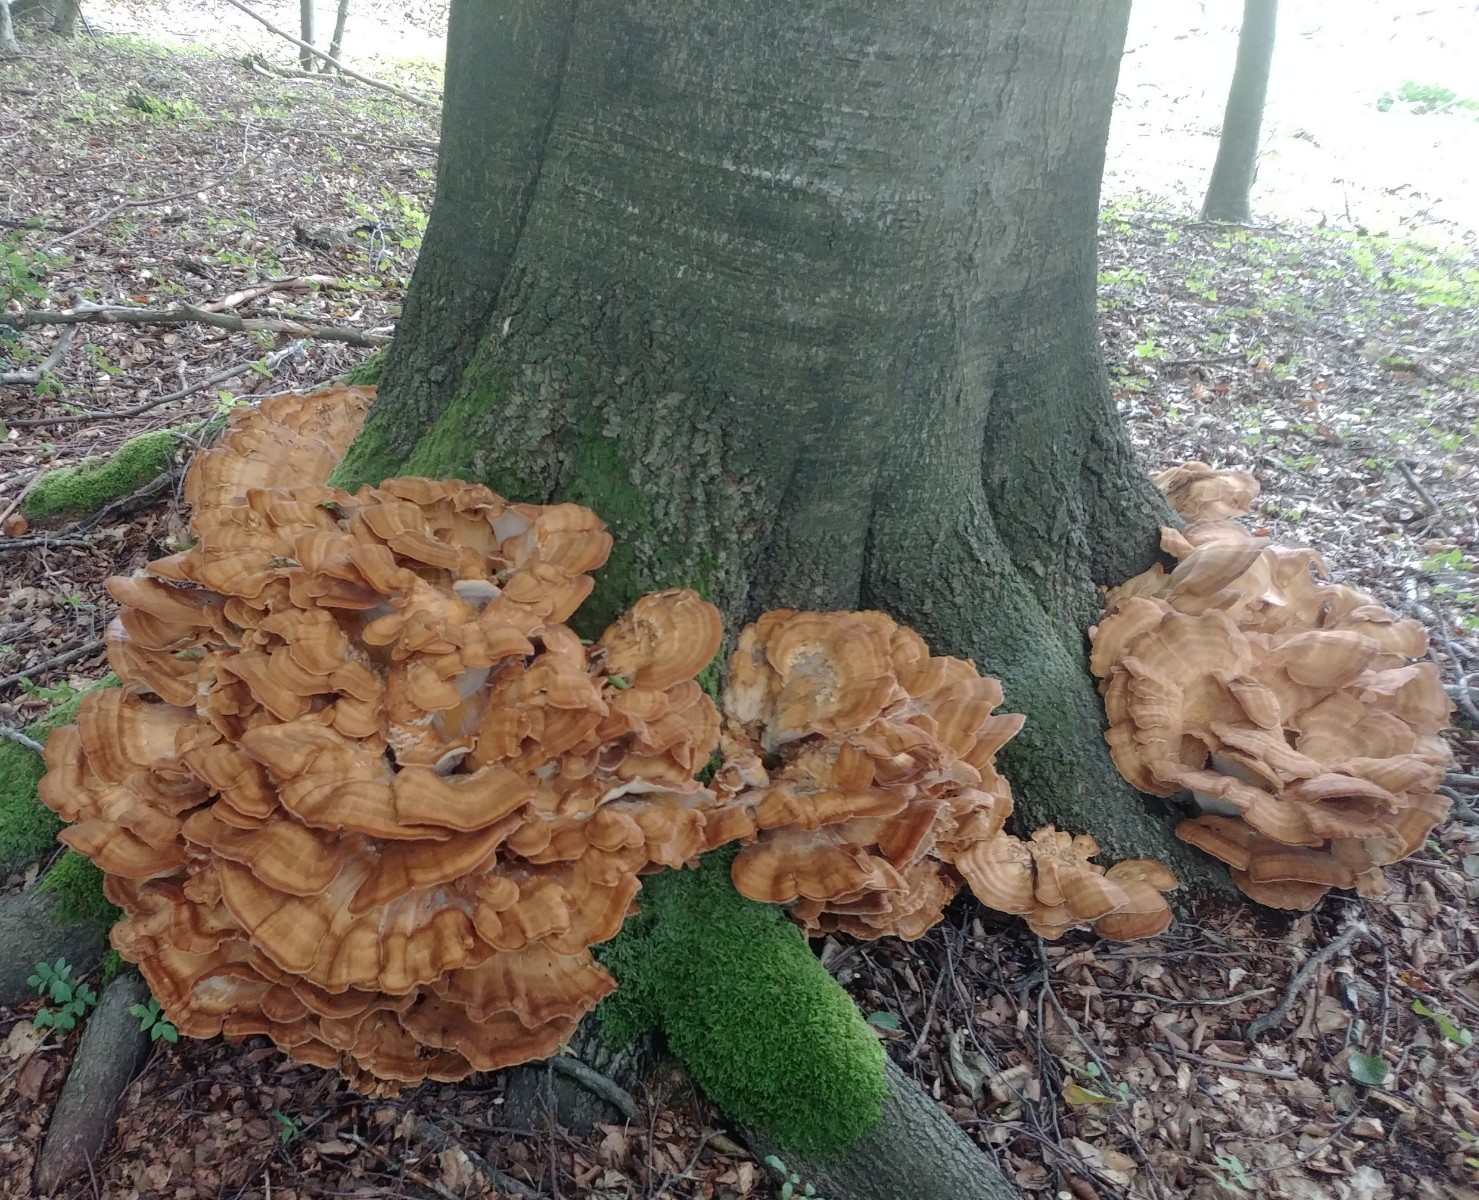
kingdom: Fungi
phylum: Basidiomycota
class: Agaricomycetes
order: Polyporales
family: Meripilaceae
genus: Meripilus
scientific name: Meripilus giganteus
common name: kæmpeporesvamp
